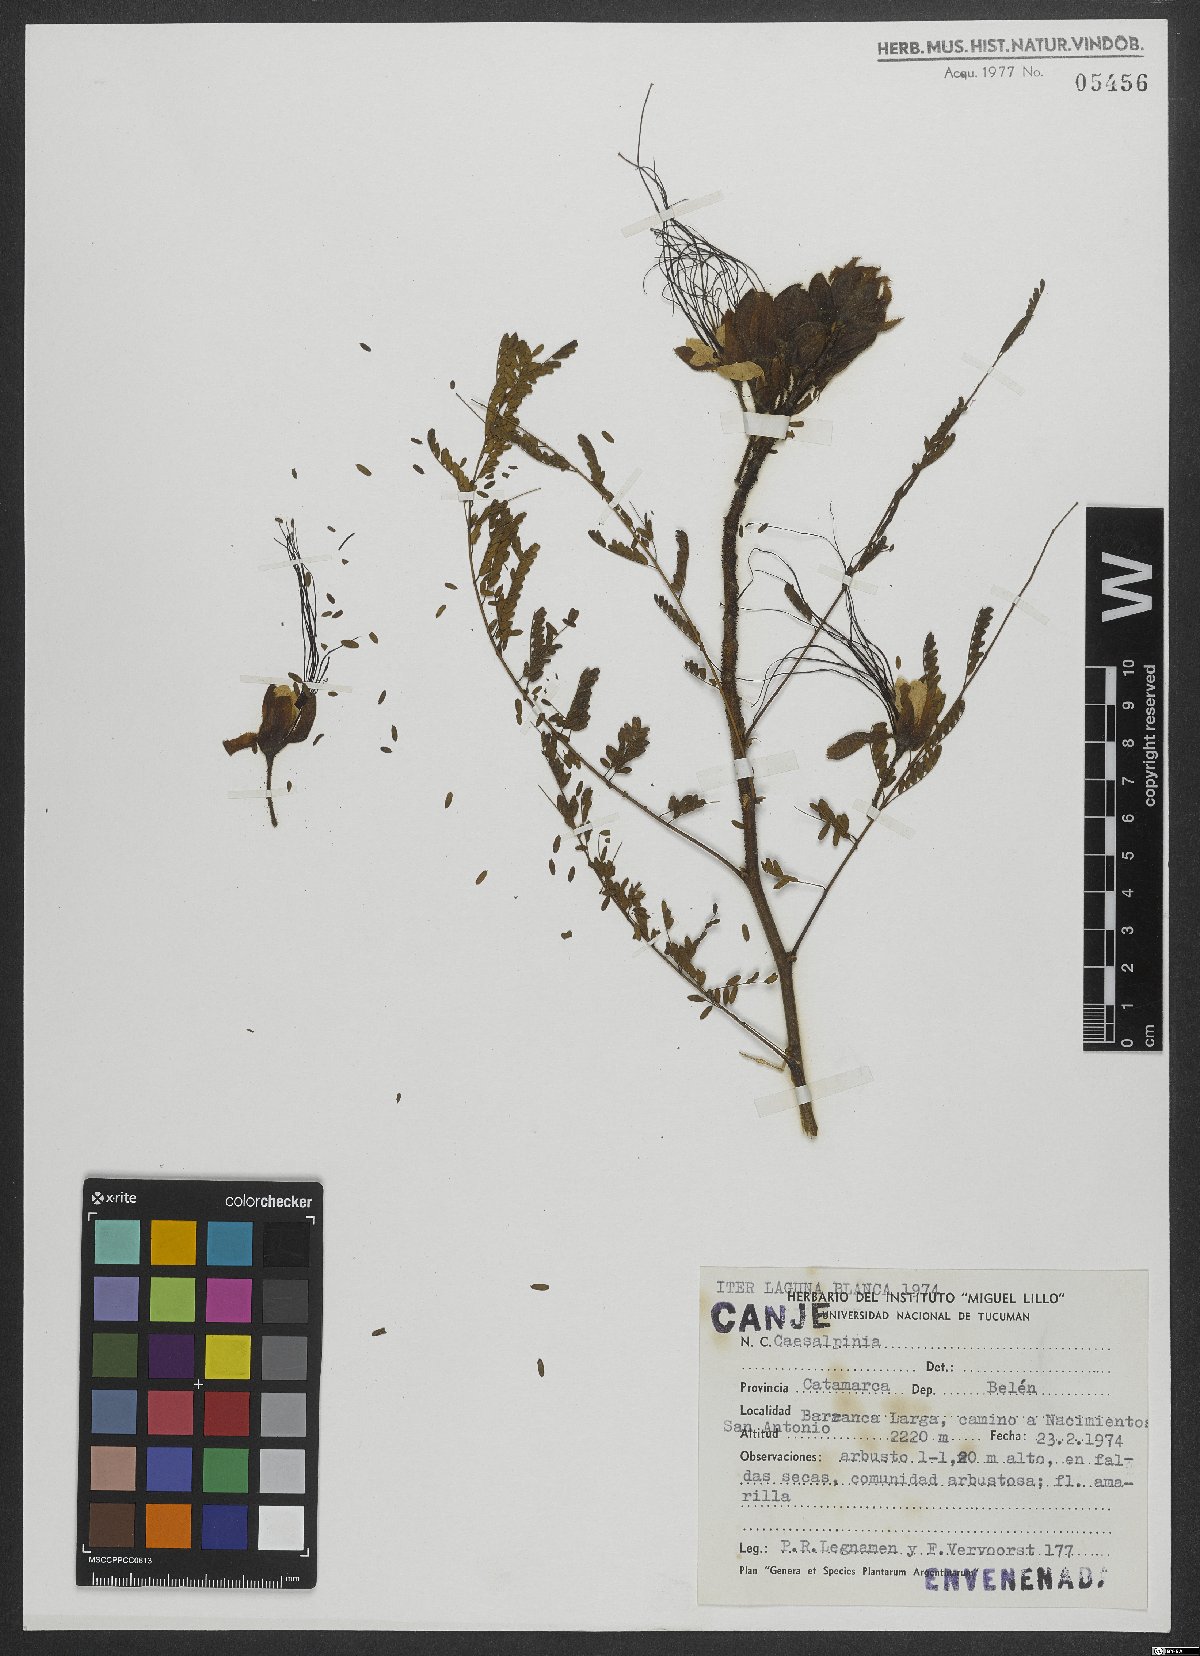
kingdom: Plantae
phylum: Tracheophyta
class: Magnoliopsida
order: Fabales
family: Fabaceae
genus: Caesalpinia
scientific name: Caesalpinia
